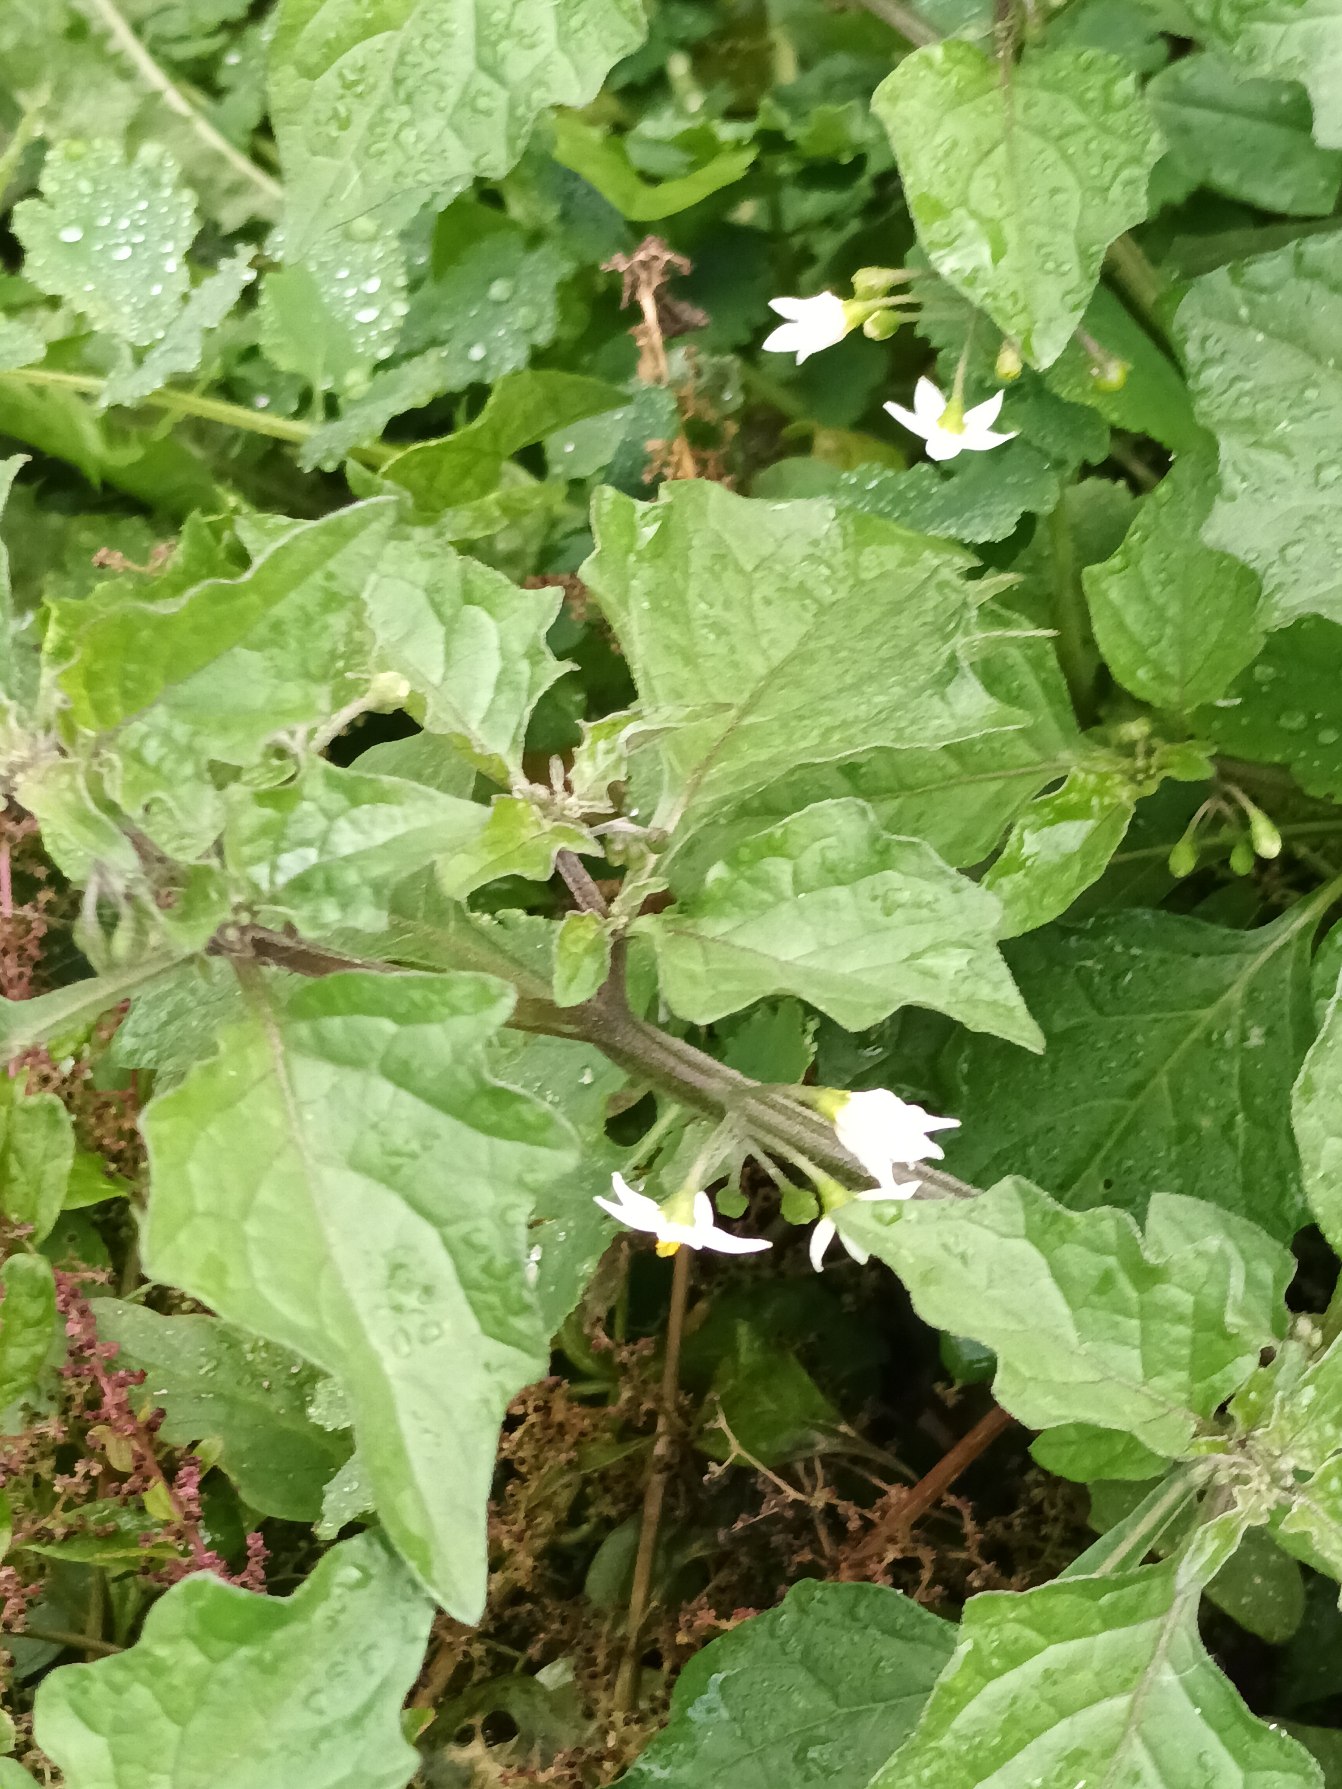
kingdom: Plantae
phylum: Tracheophyta
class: Magnoliopsida
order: Solanales
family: Solanaceae
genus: Solanum
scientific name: Solanum nigrum
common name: Sort natskygge
